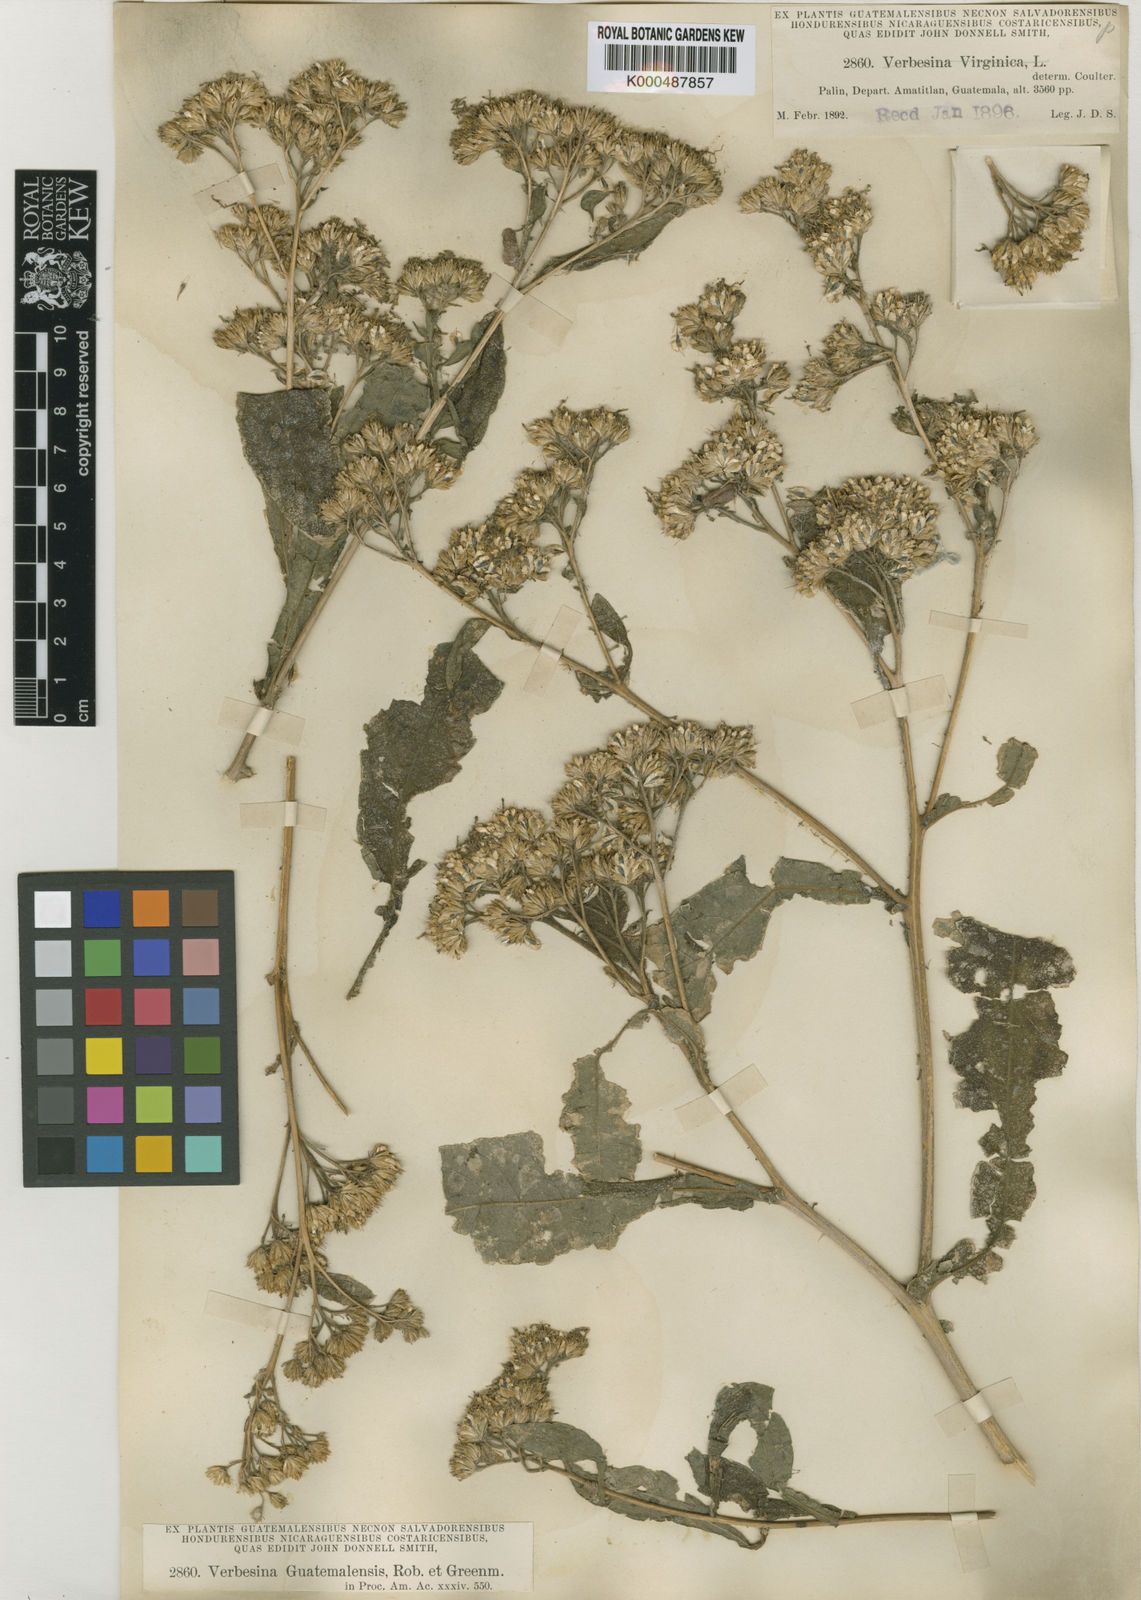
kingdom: Plantae
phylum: Tracheophyta
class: Magnoliopsida
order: Asterales
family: Asteraceae
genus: Verbesina
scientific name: Verbesina virginica
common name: Frostweed
